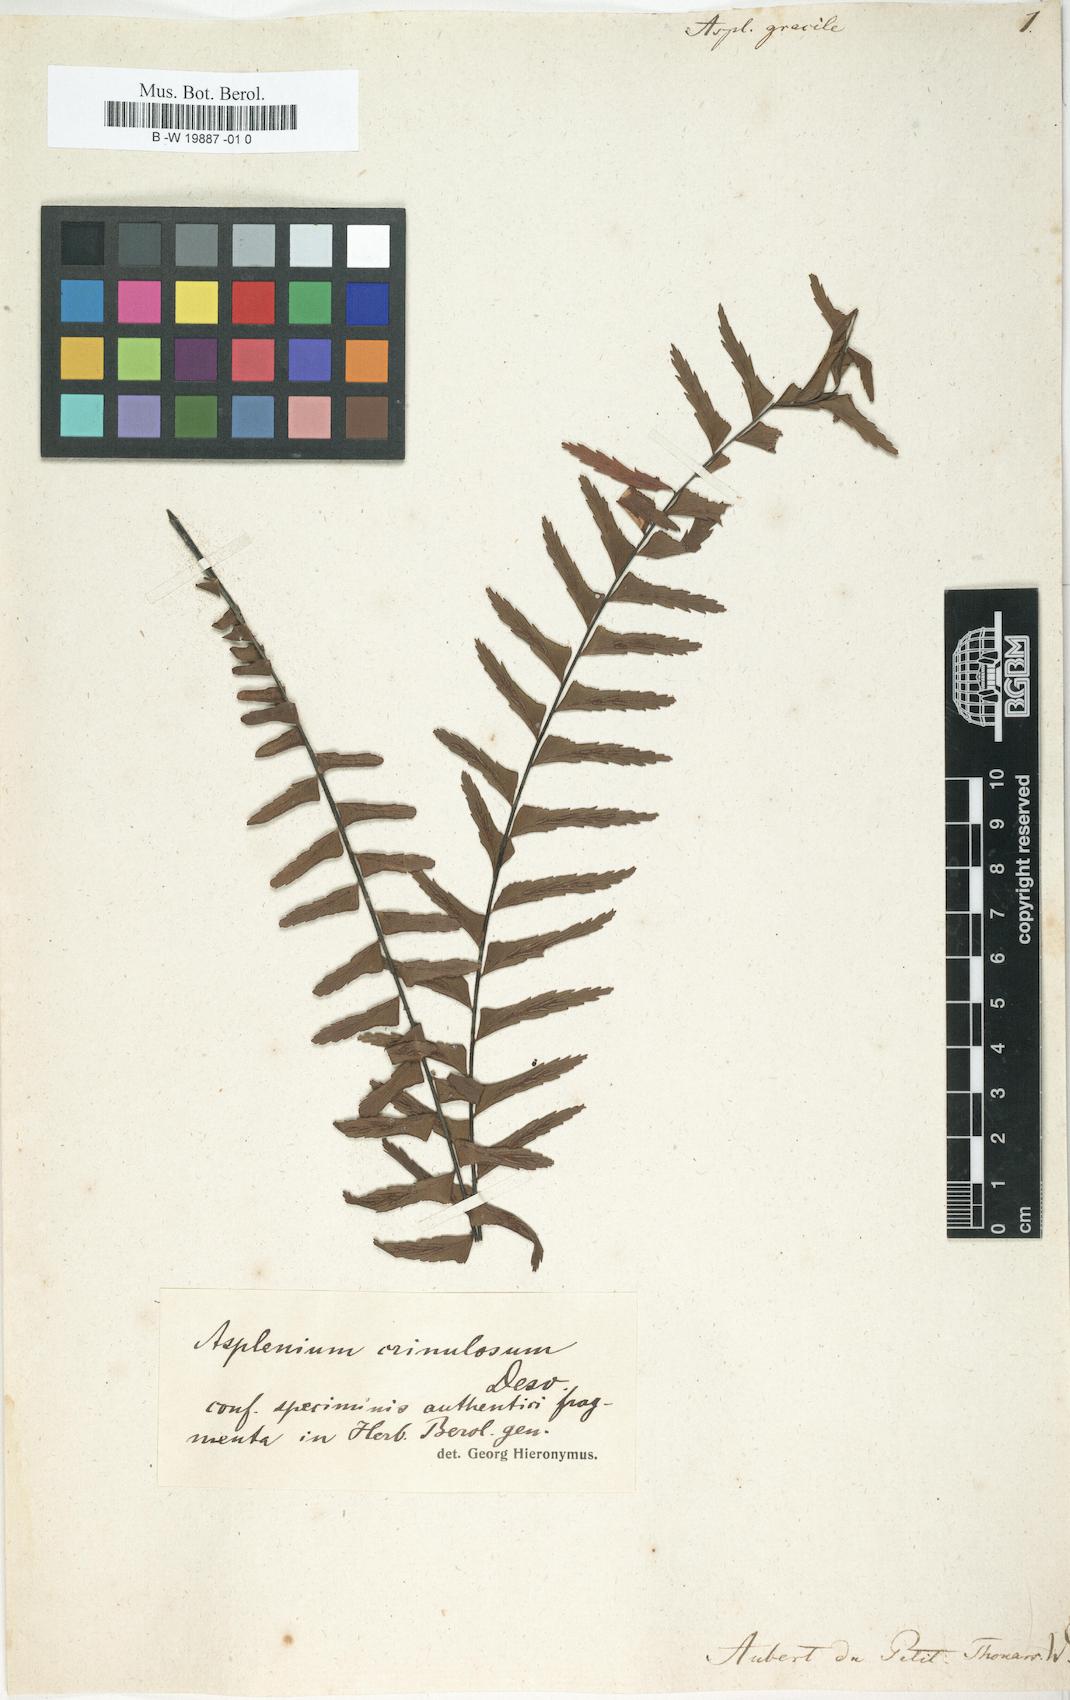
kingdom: Plantae
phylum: Tracheophyta
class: Polypodiopsida
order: Polypodiales
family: Aspleniaceae
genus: Asplenium
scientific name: Asplenium gracile
